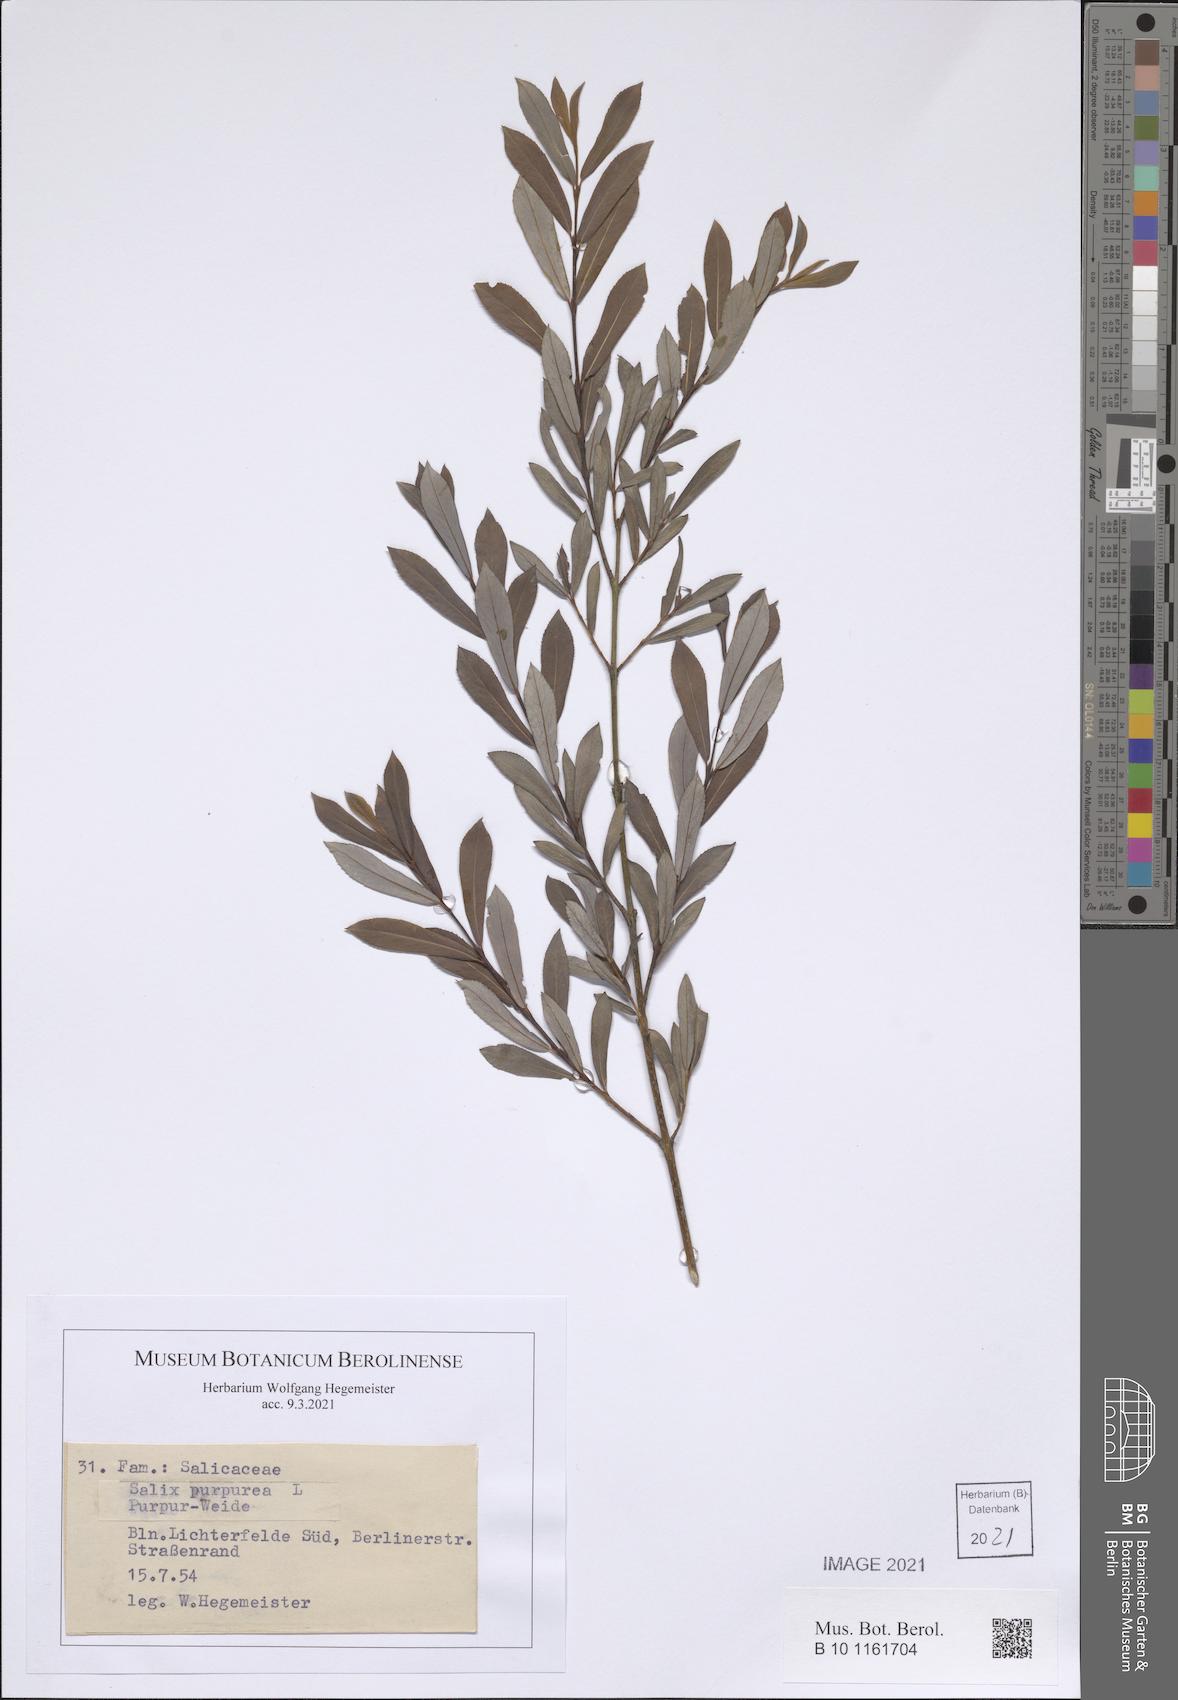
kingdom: Plantae
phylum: Tracheophyta
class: Magnoliopsida
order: Malpighiales
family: Salicaceae
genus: Salix
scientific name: Salix purpurea
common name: Purple willow
